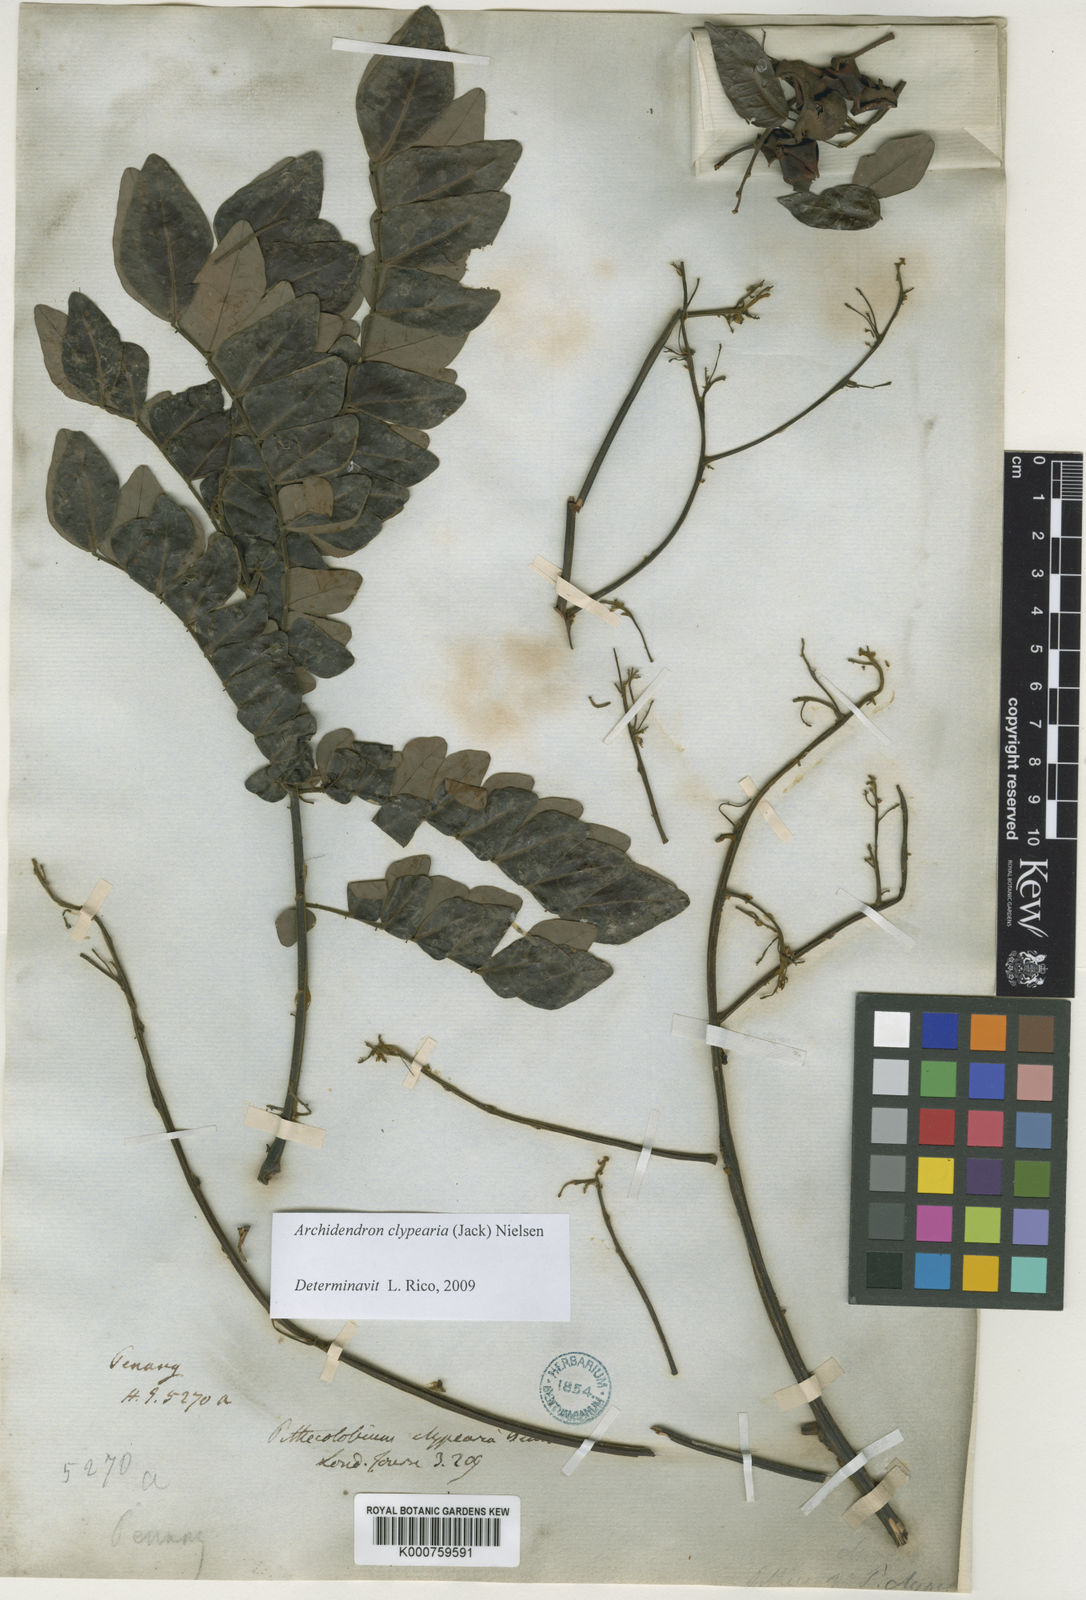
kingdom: Plantae
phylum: Tracheophyta
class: Magnoliopsida
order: Fabales
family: Fabaceae
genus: Archidendron
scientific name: Archidendron clypearia
